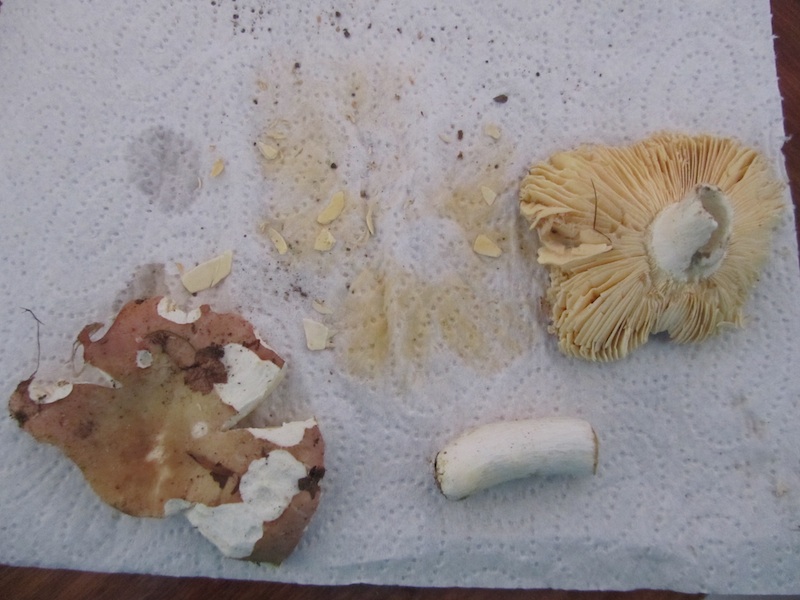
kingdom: Fungi
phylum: Basidiomycota
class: Agaricomycetes
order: Russulales
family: Russulaceae
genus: Russula
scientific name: Russula veternosa
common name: blødkødet skørhat
